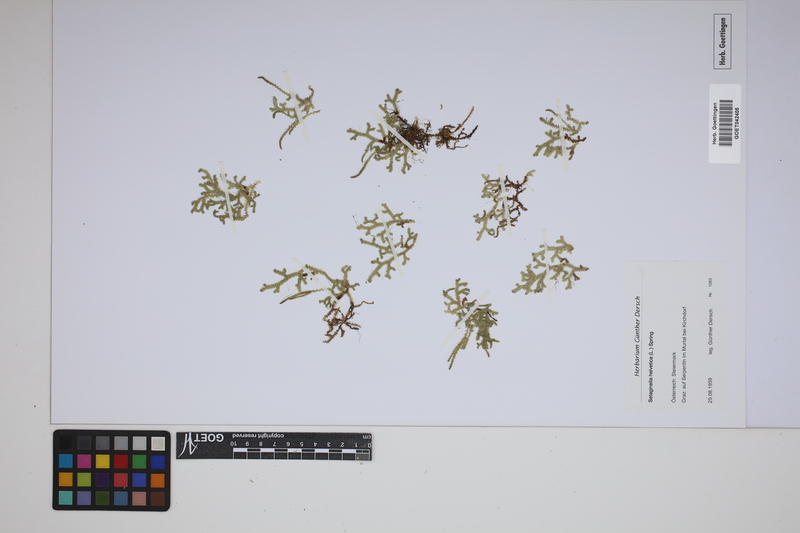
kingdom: Plantae
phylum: Tracheophyta
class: Lycopodiopsida
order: Selaginellales
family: Selaginellaceae
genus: Selaginella
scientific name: Selaginella helvetica
